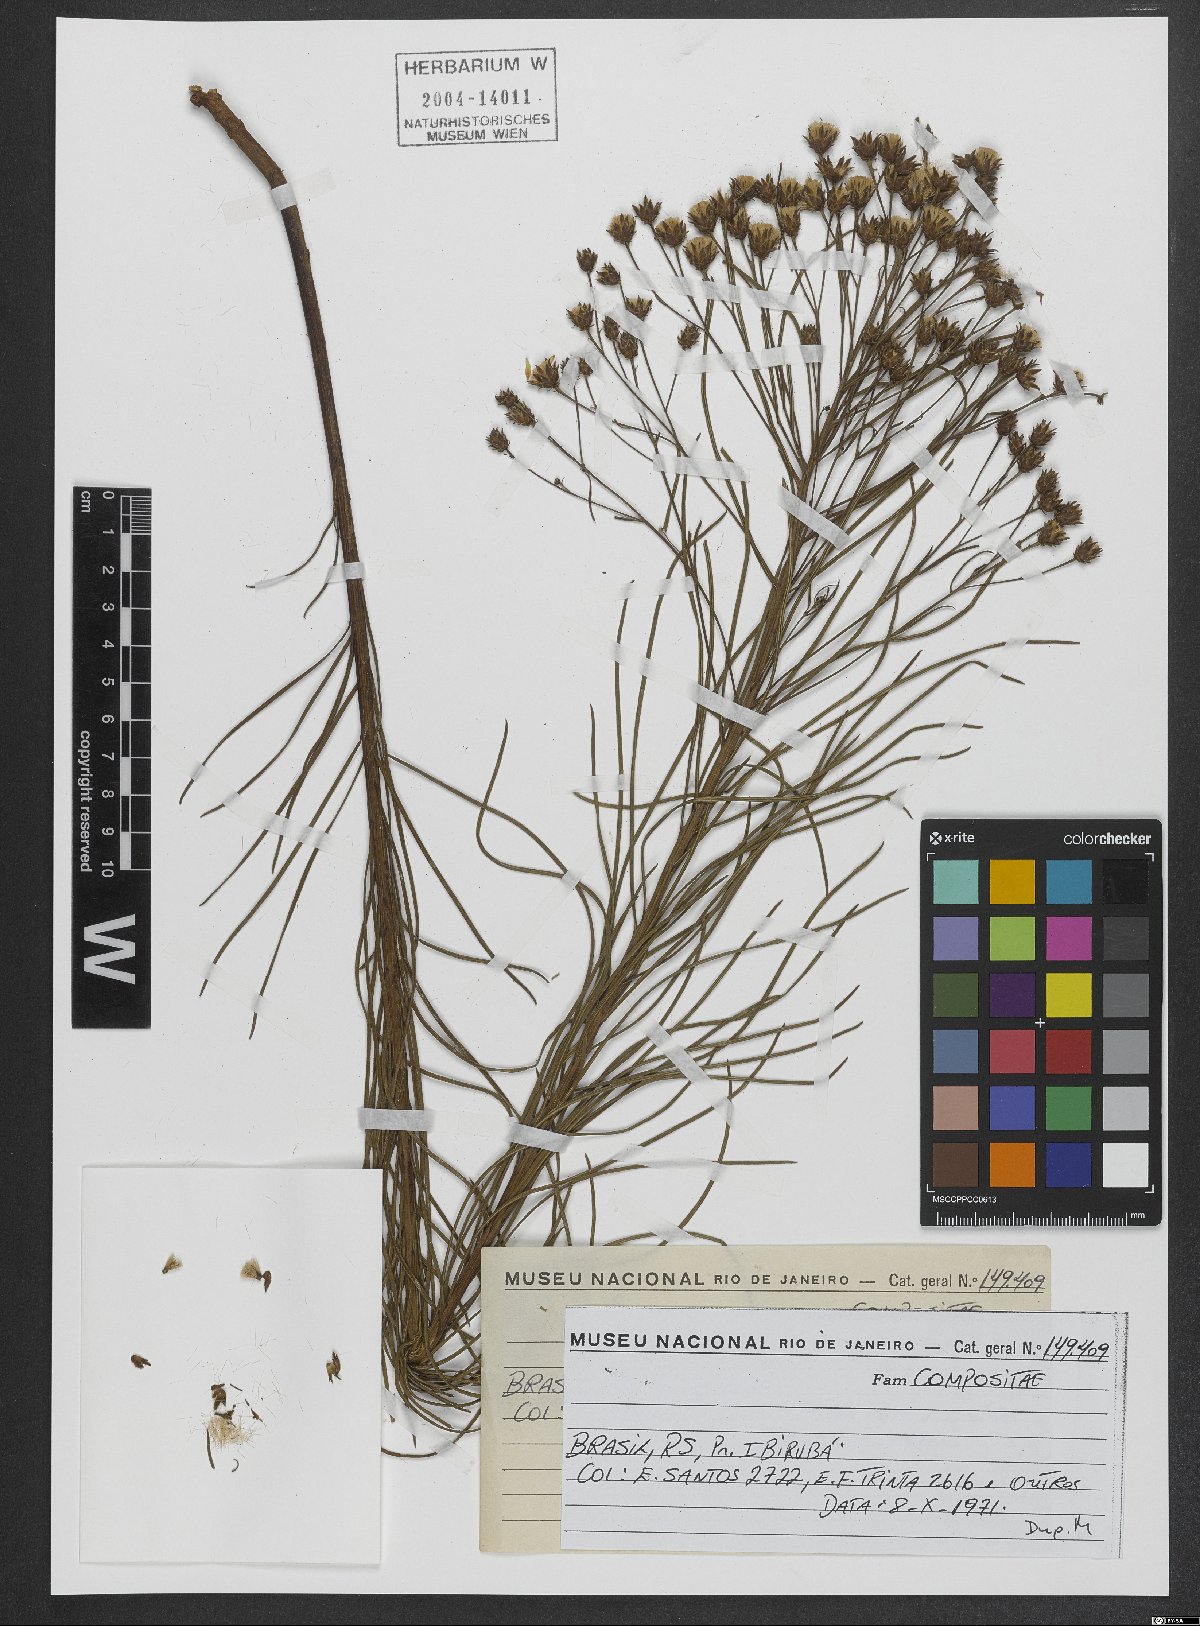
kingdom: Plantae
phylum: Tracheophyta
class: Magnoliopsida
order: Asterales
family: Asteraceae
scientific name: Asteraceae
